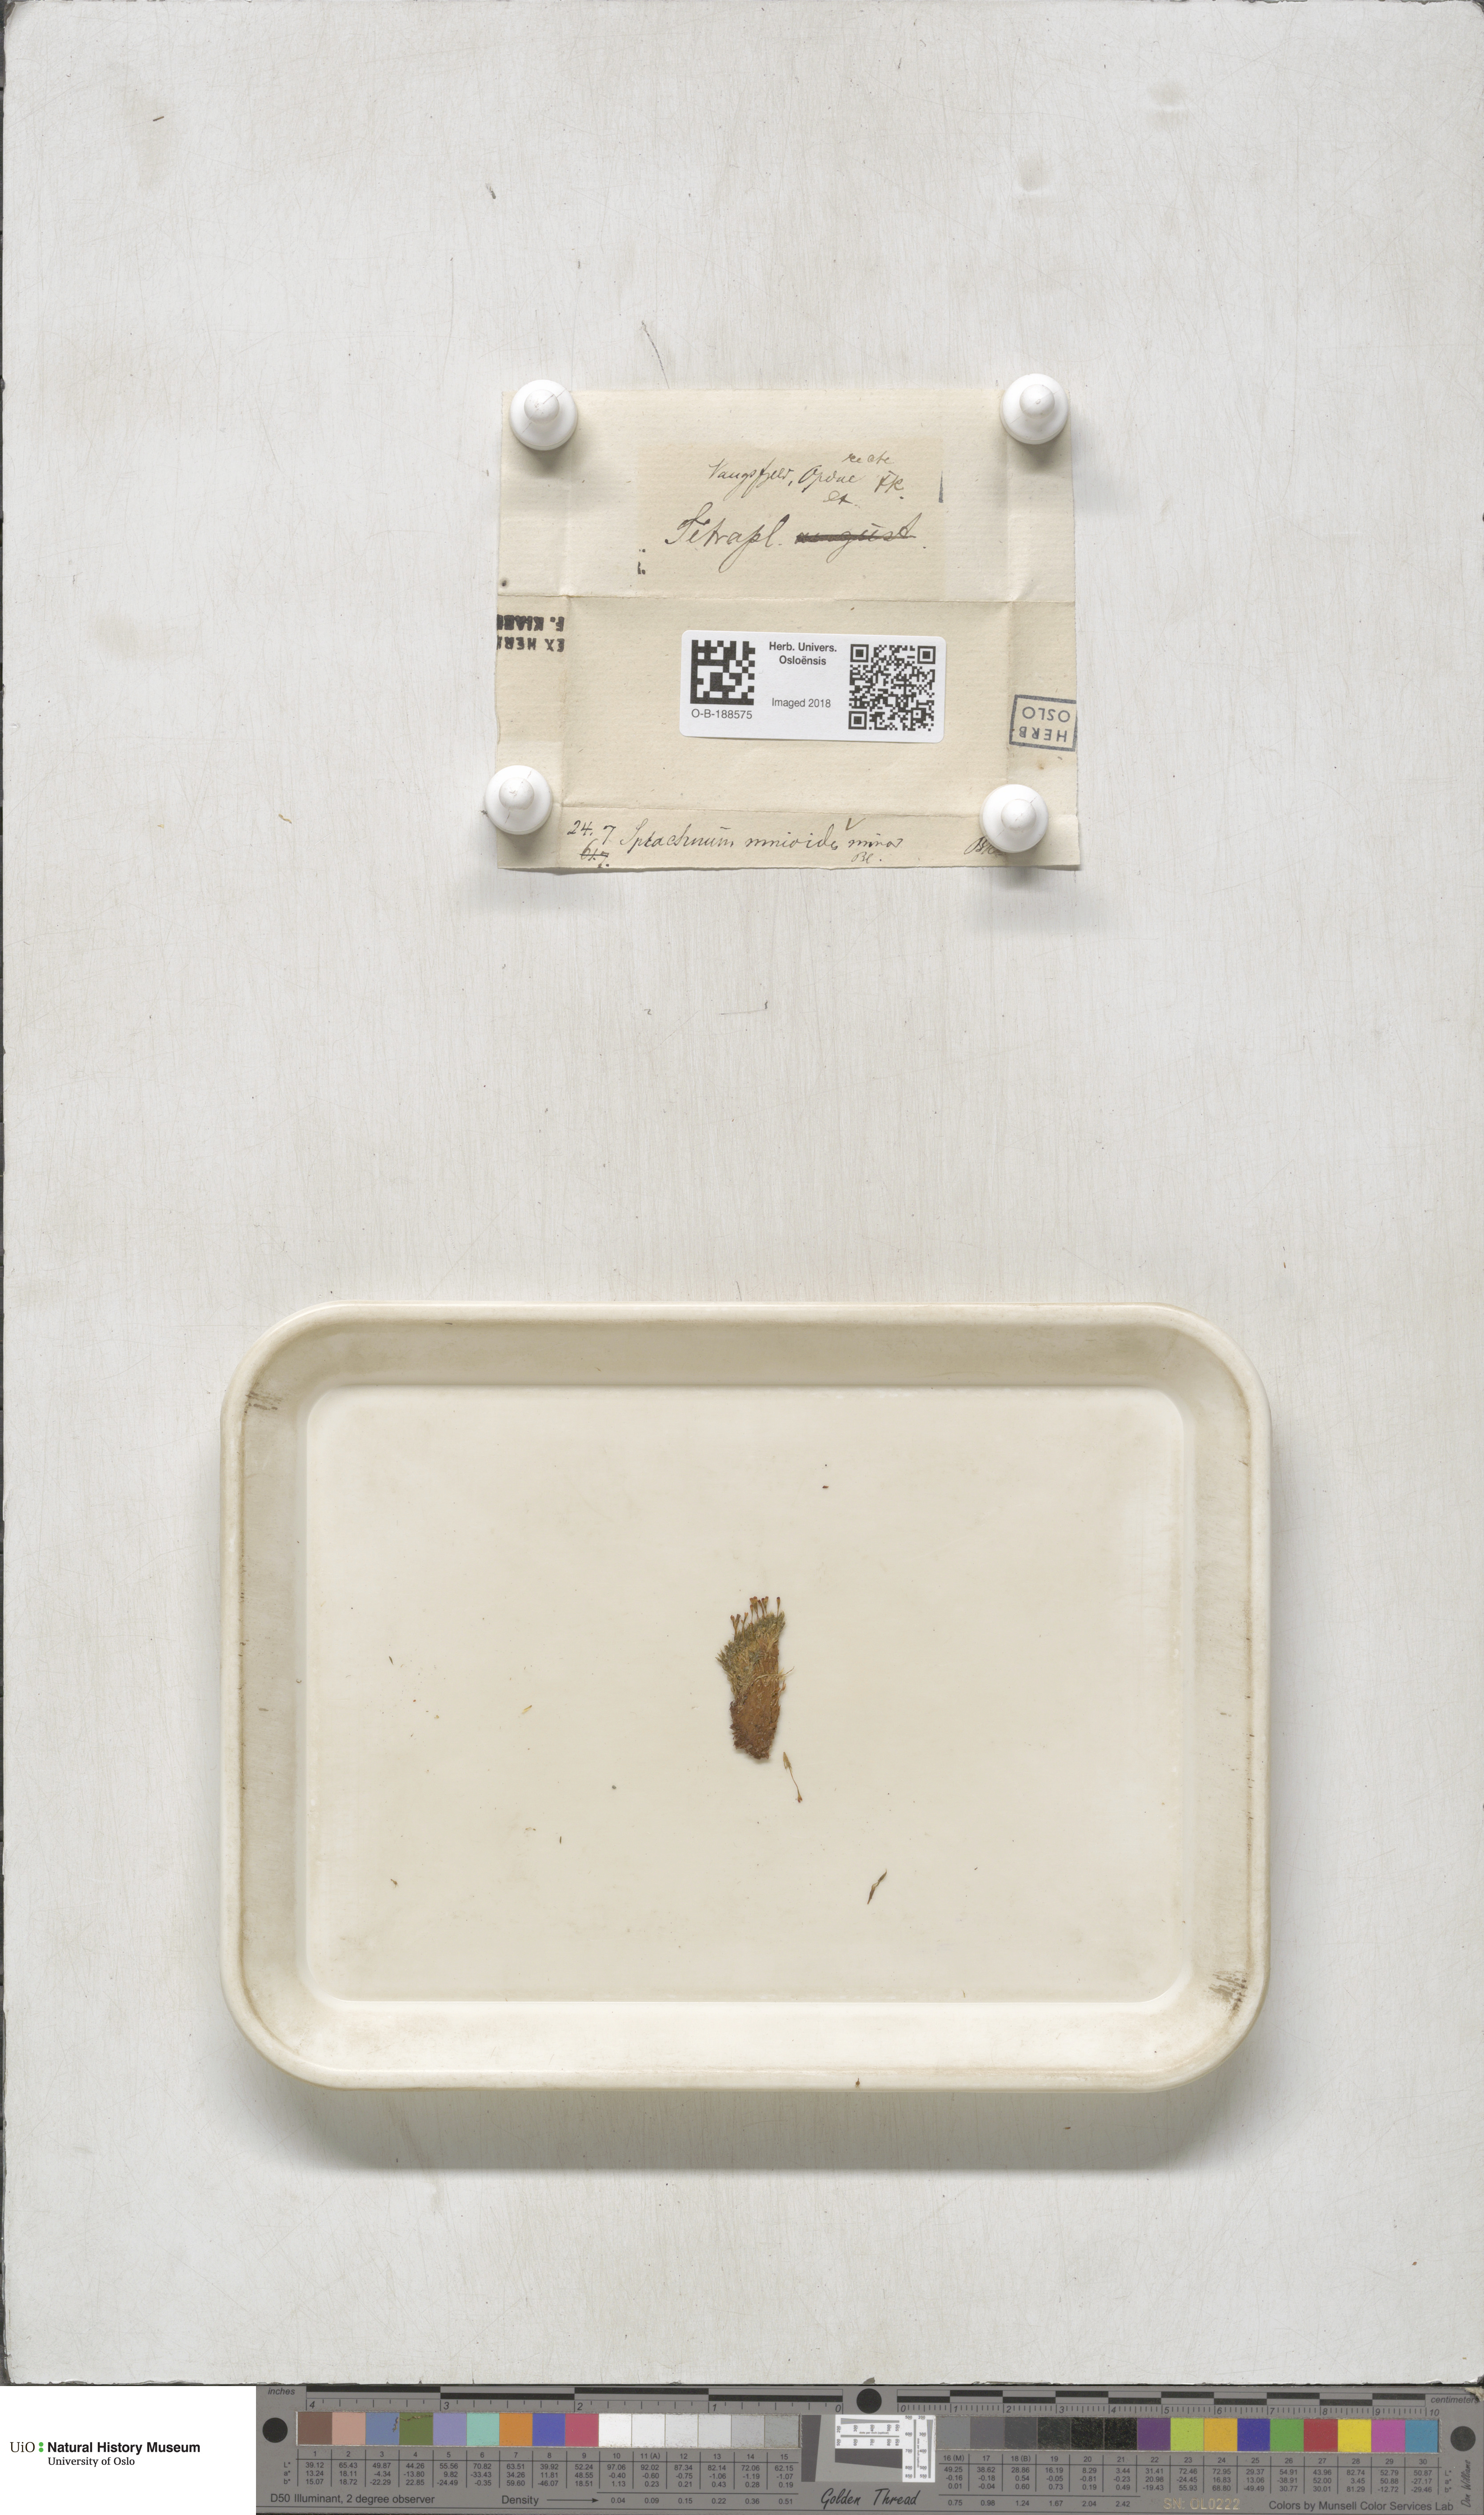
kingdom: Plantae
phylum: Bryophyta
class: Bryopsida
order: Splachnales
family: Splachnaceae
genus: Tetraplodon
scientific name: Tetraplodon mnioides
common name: Entire-leaved nitrogen moss
